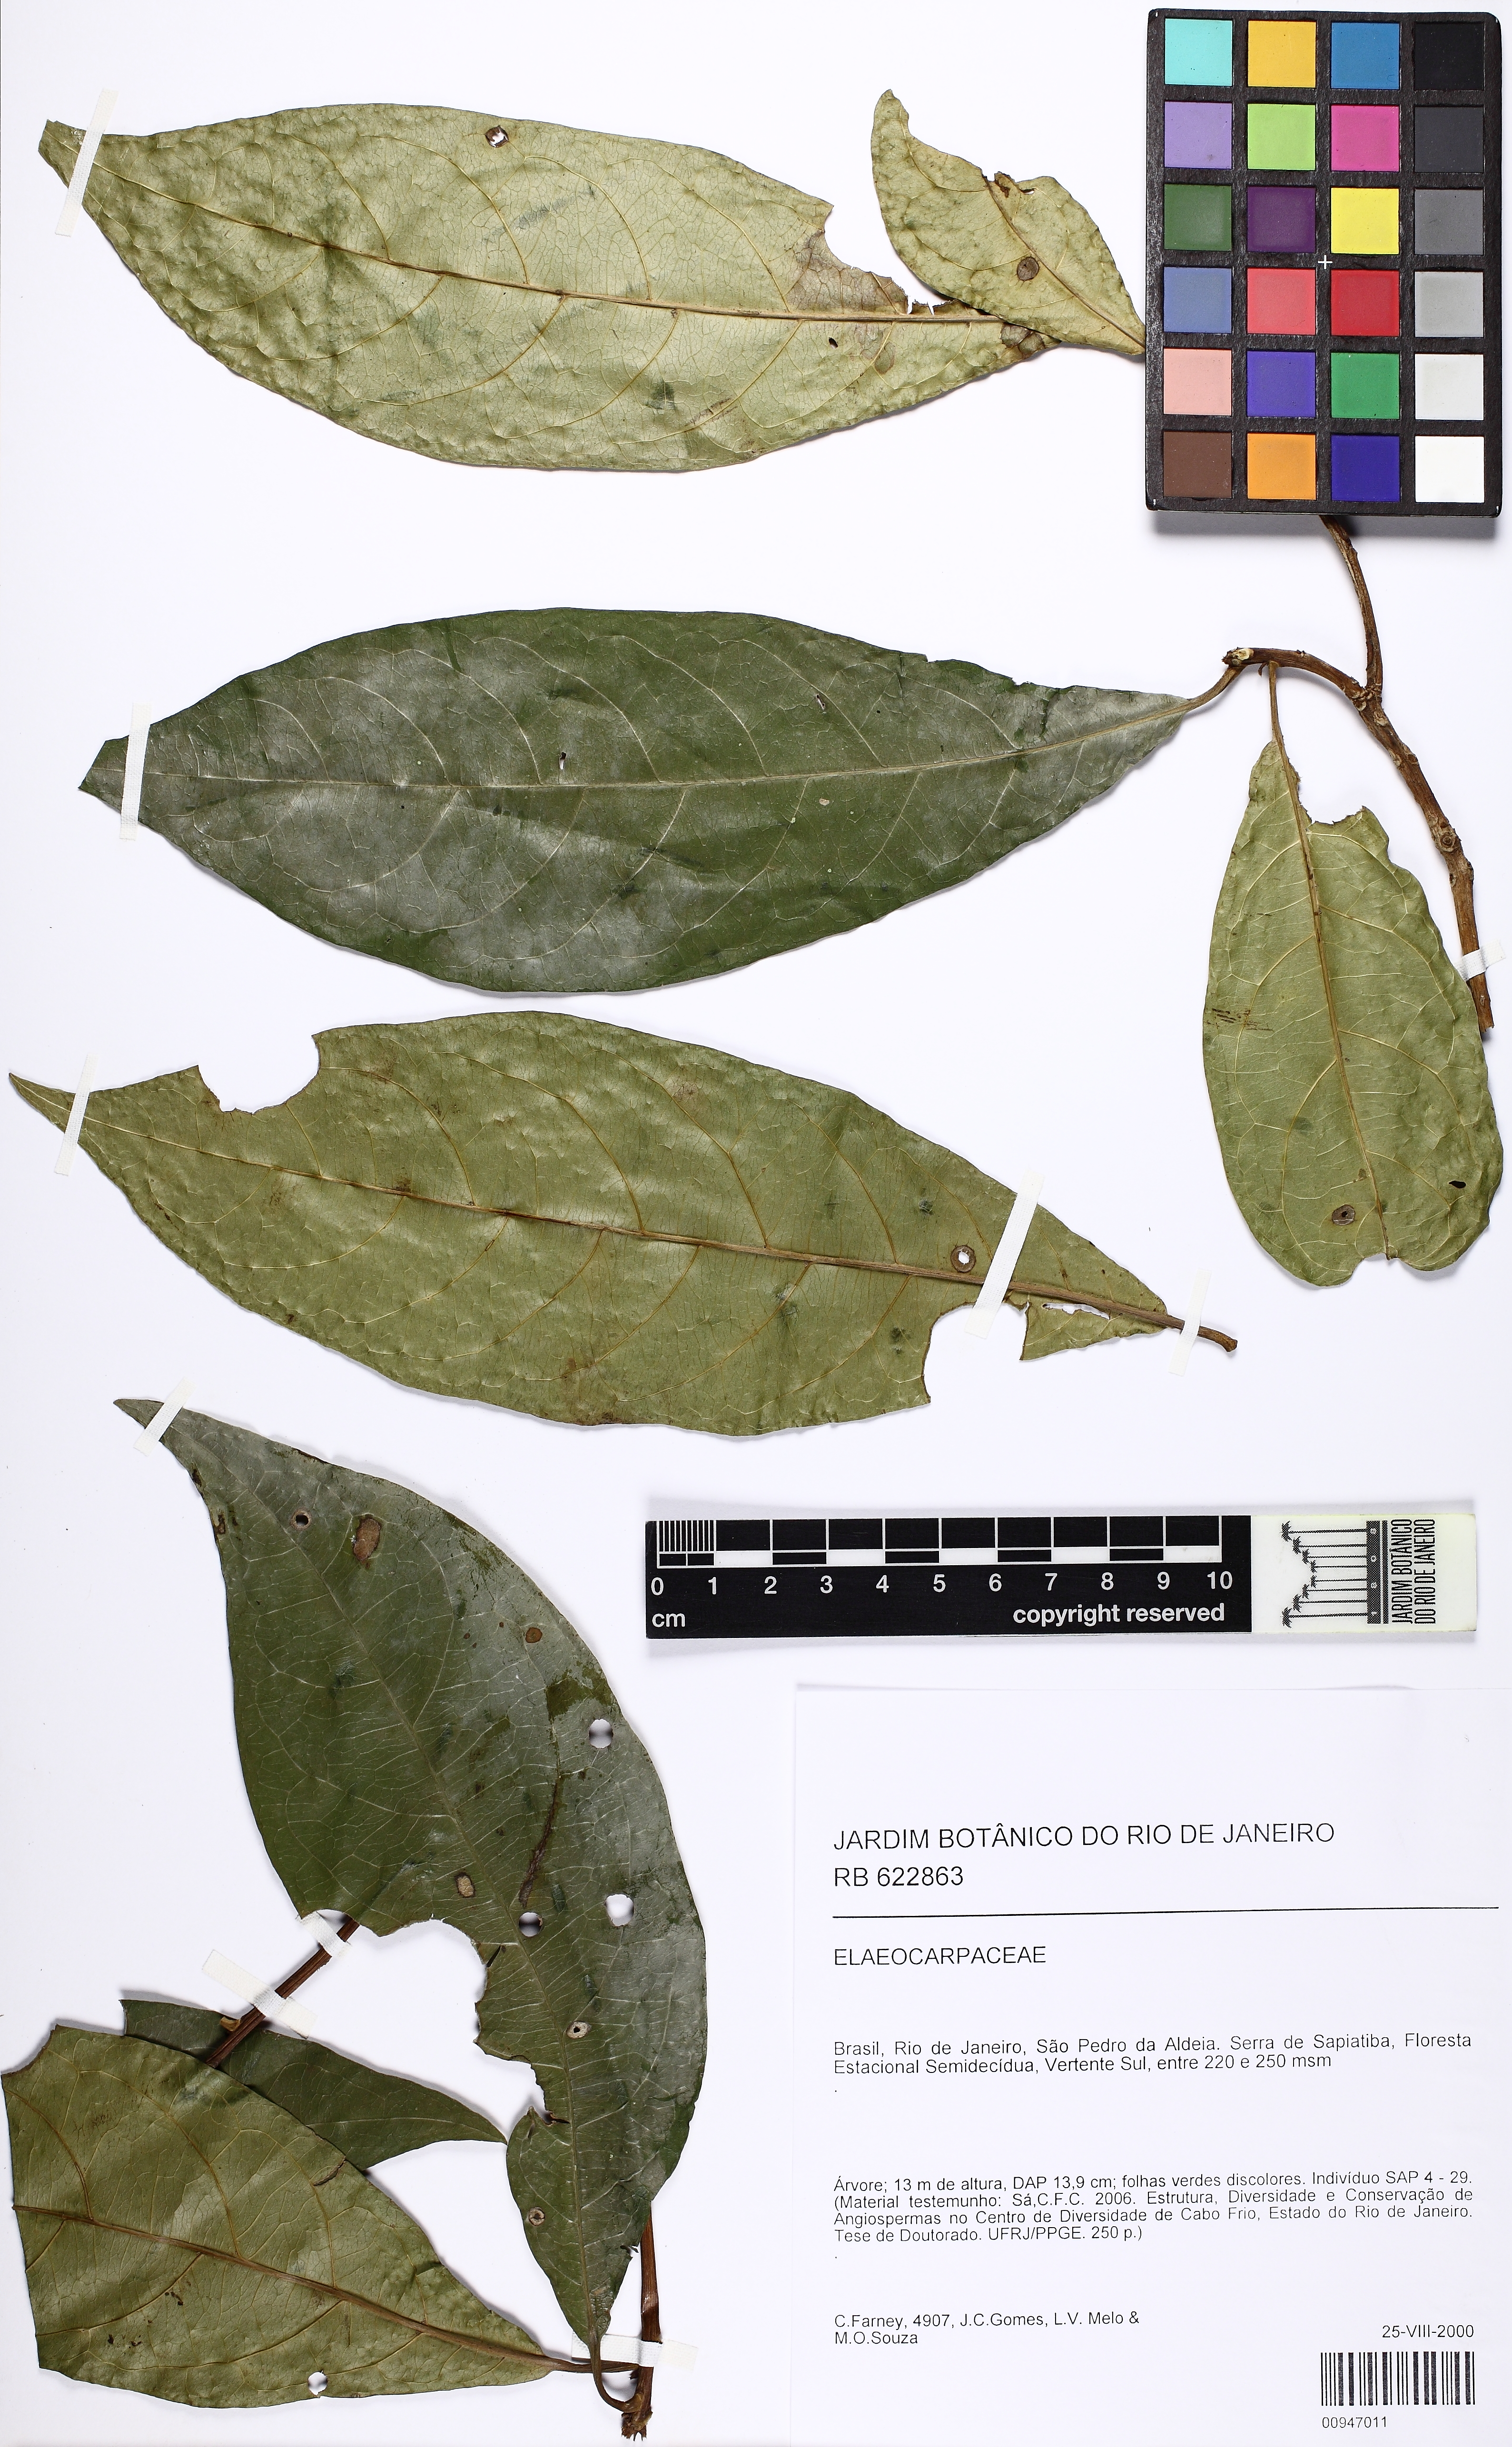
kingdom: Plantae
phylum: Tracheophyta
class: Magnoliopsida
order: Oxalidales
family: Elaeocarpaceae
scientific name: Elaeocarpaceae
